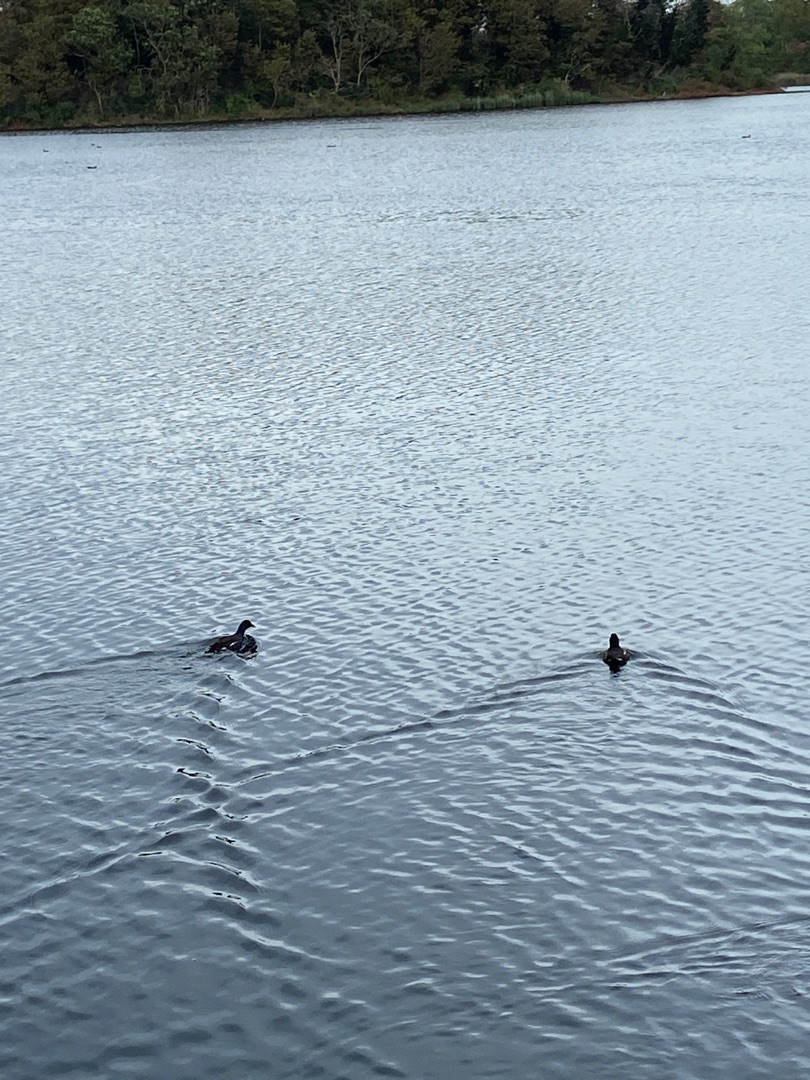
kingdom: Animalia
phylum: Chordata
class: Aves
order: Gruiformes
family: Rallidae
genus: Gallinula
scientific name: Gallinula chloropus
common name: Grønbenet rørhøne
